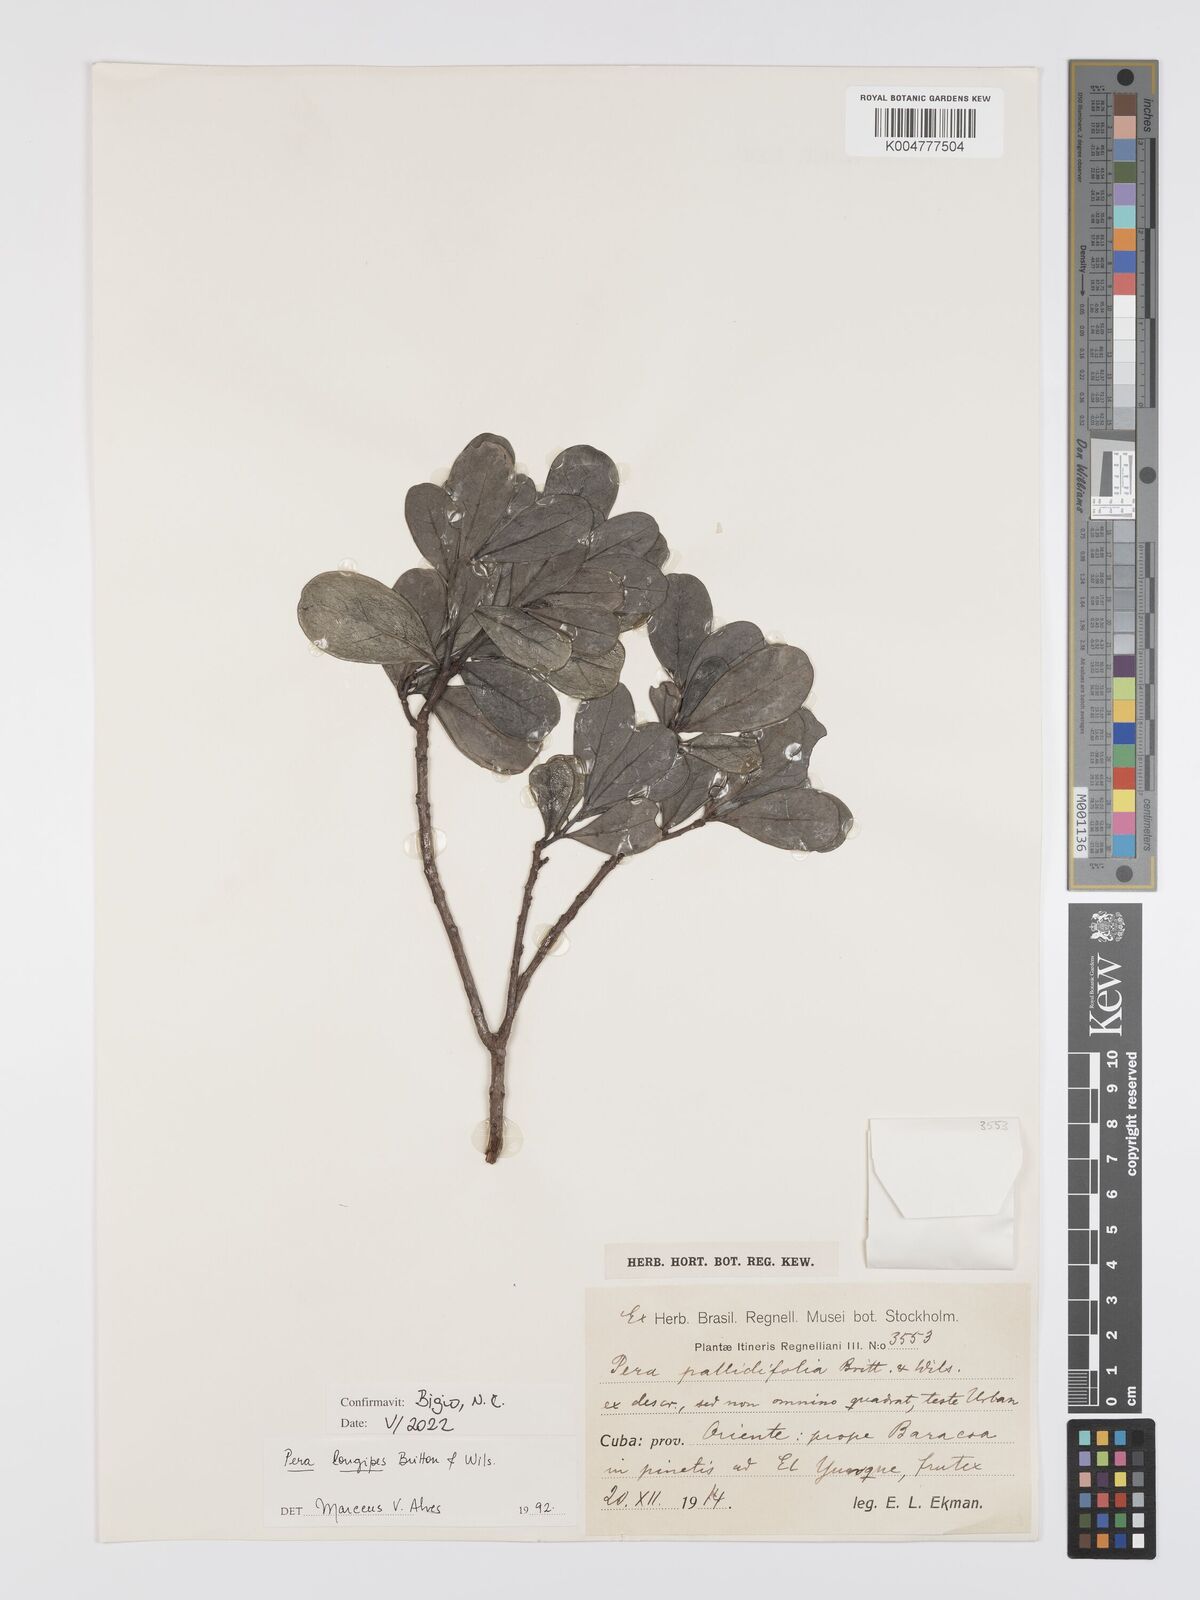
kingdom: Plantae
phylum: Tracheophyta
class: Magnoliopsida
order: Malpighiales
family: Peraceae
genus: Pera
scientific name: Pera longipes
